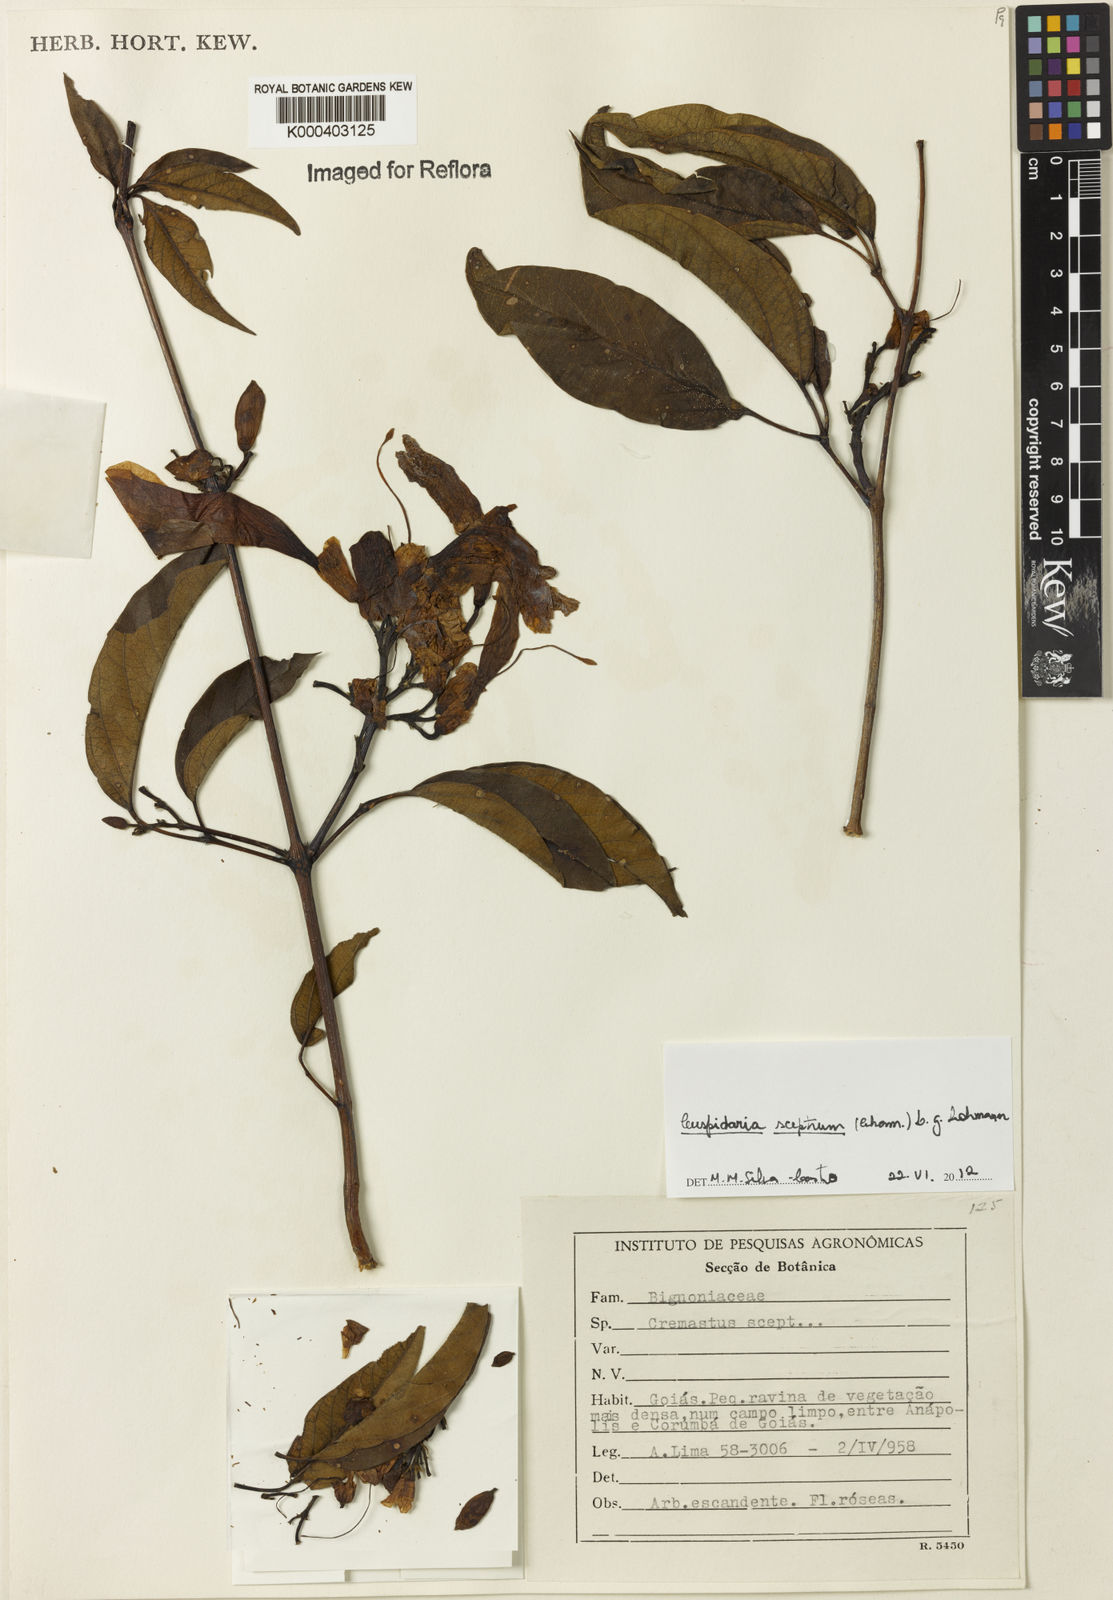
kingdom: Plantae
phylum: Tracheophyta
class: Magnoliopsida
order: Lamiales
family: Bignoniaceae
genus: Cuspidaria
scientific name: Cuspidaria sceptrum
